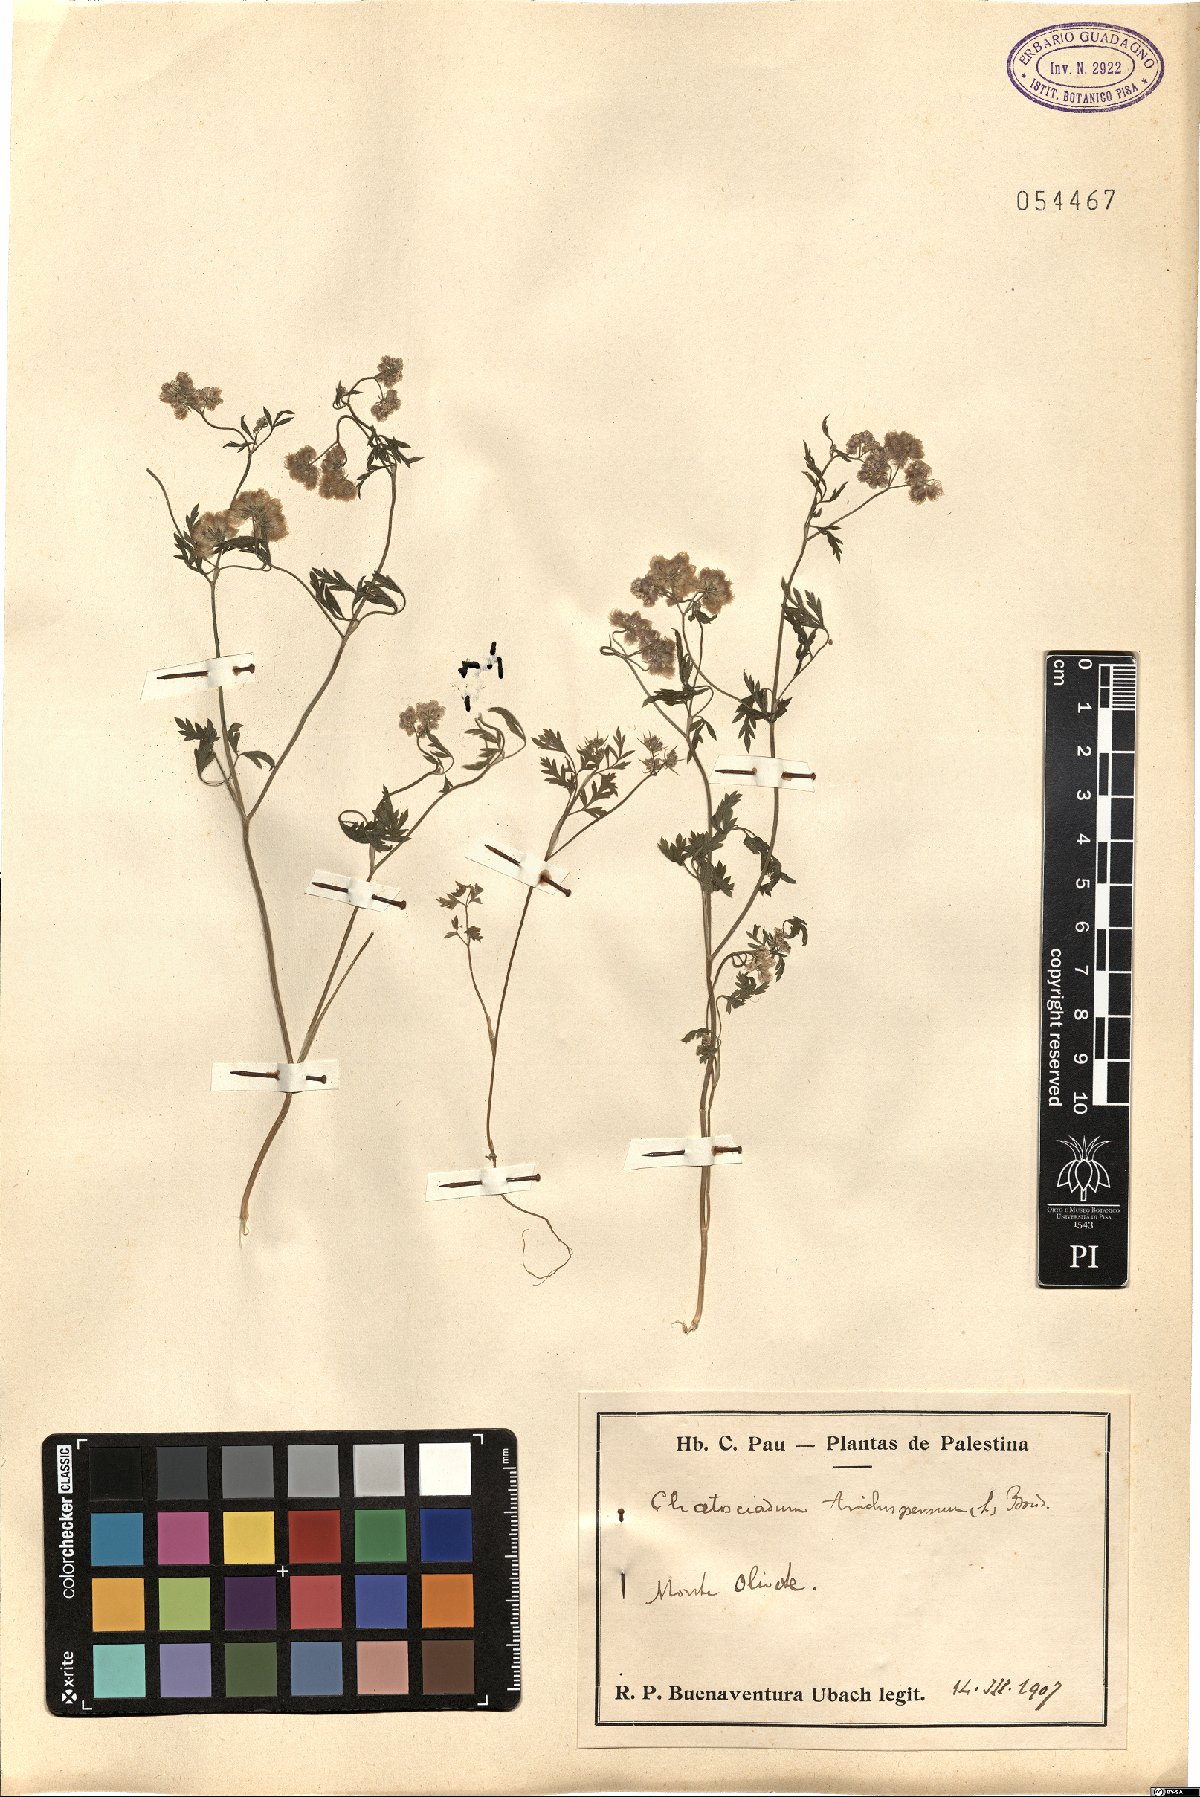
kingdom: Plantae
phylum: Tracheophyta
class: Magnoliopsida
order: Apiales
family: Apiaceae
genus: Torilis
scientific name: Torilis trichosperma
